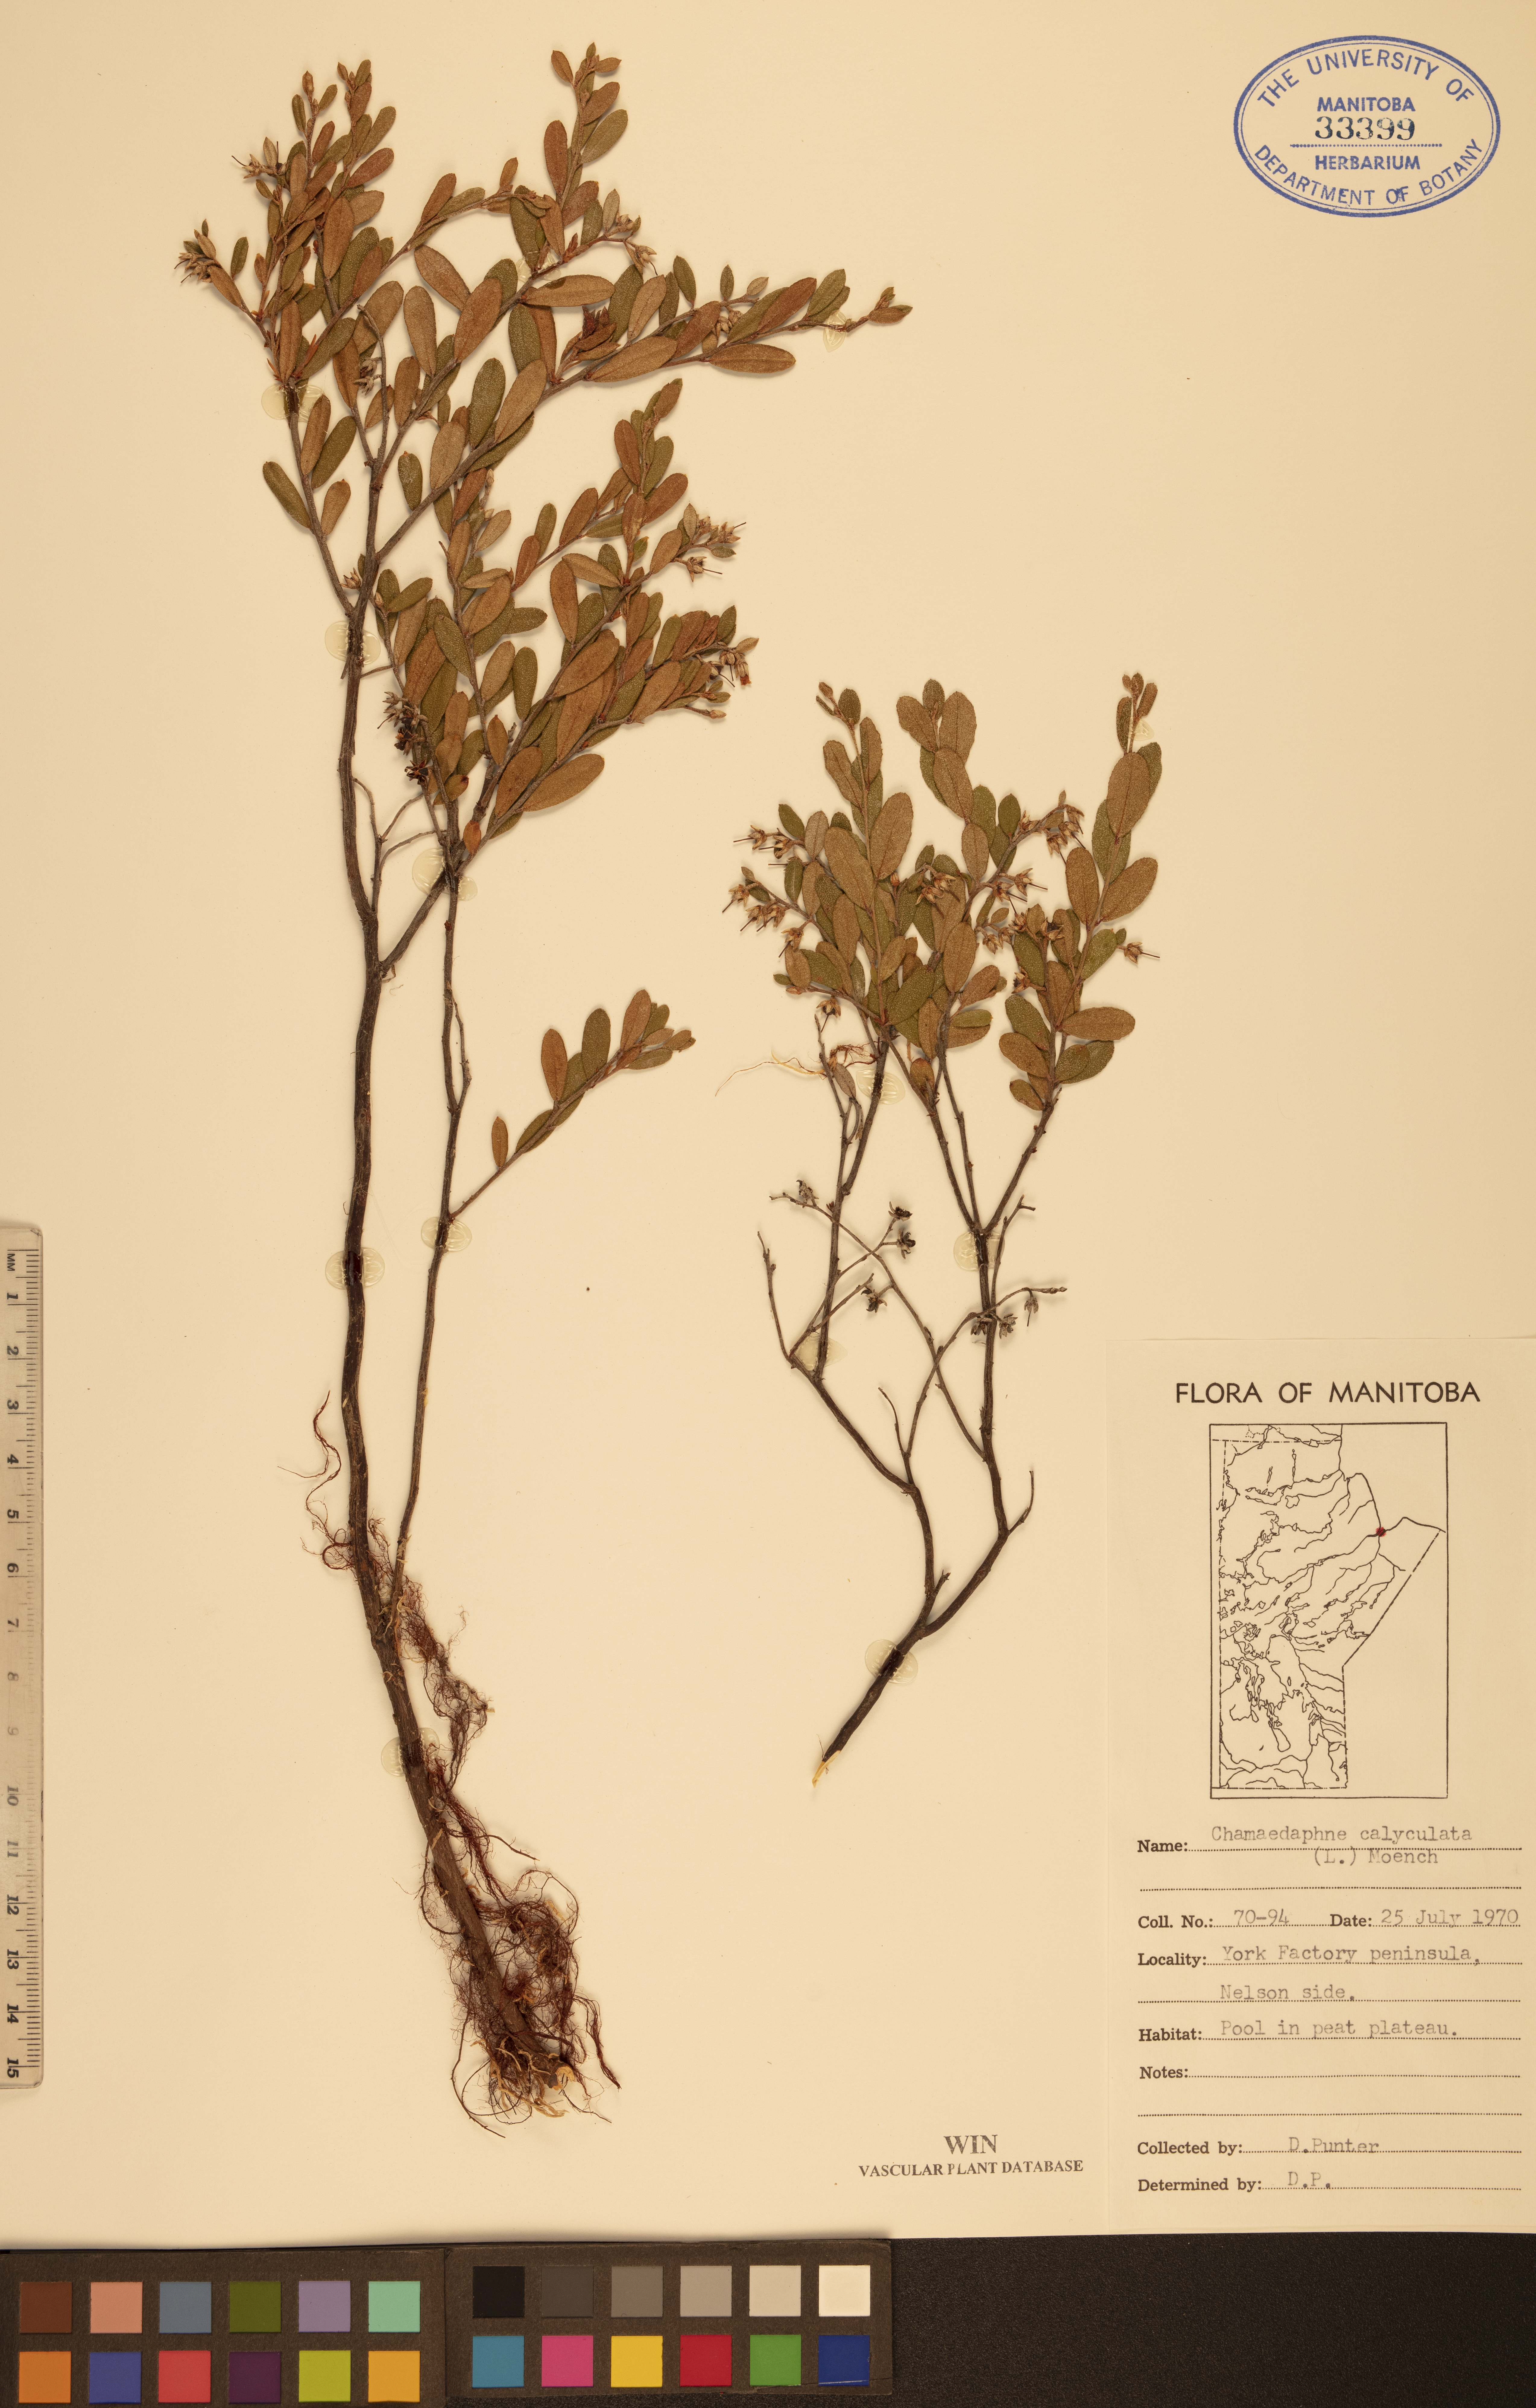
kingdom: Plantae
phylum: Tracheophyta
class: Magnoliopsida
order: Ericales
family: Ericaceae
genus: Chamaedaphne
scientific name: Chamaedaphne calyculata
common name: Leatherleaf
